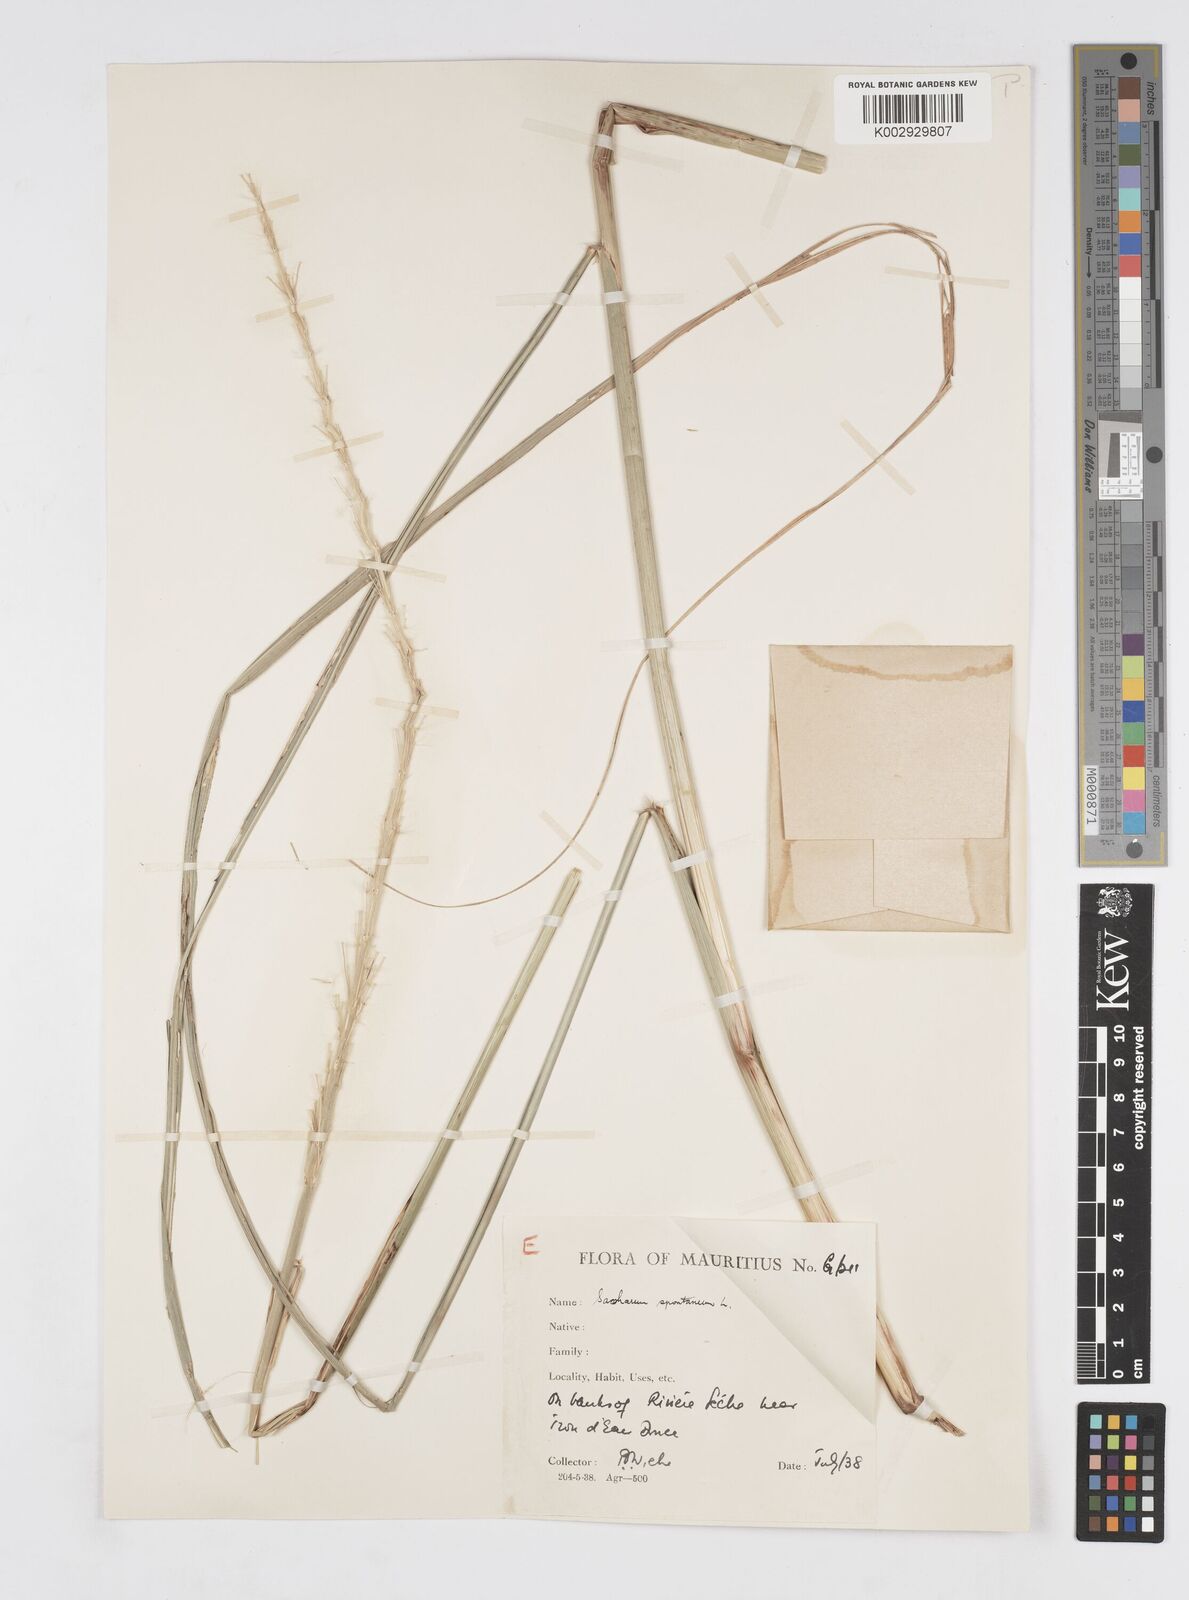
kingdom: Plantae
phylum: Tracheophyta
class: Liliopsida
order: Poales
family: Poaceae
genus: Saccharum
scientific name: Saccharum spontaneum
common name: Wild sugarcane
